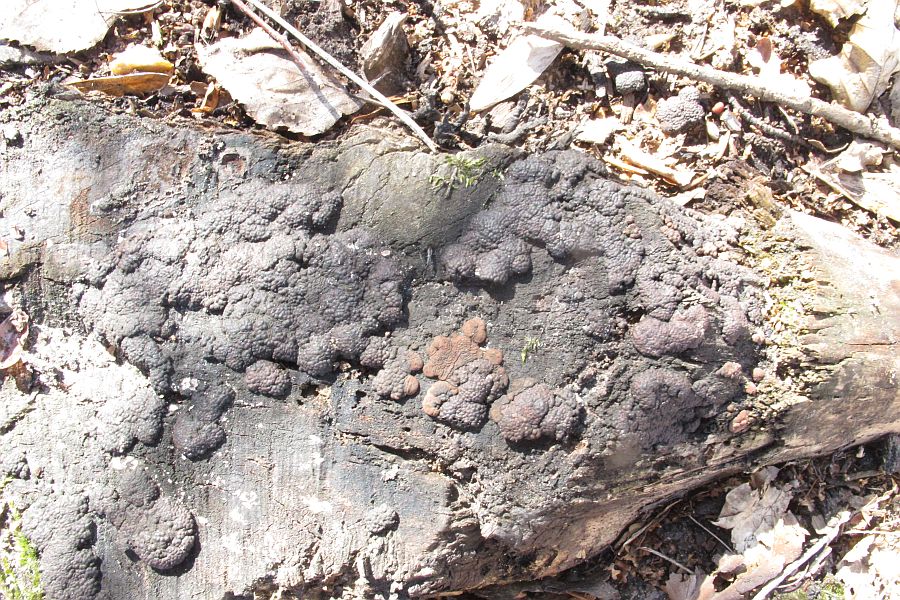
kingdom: Fungi
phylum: Ascomycota
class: Sordariomycetes
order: Xylariales
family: Hypoxylaceae
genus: Jackrogersella
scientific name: Jackrogersella cohaerens
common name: sammenflydende kulbær
